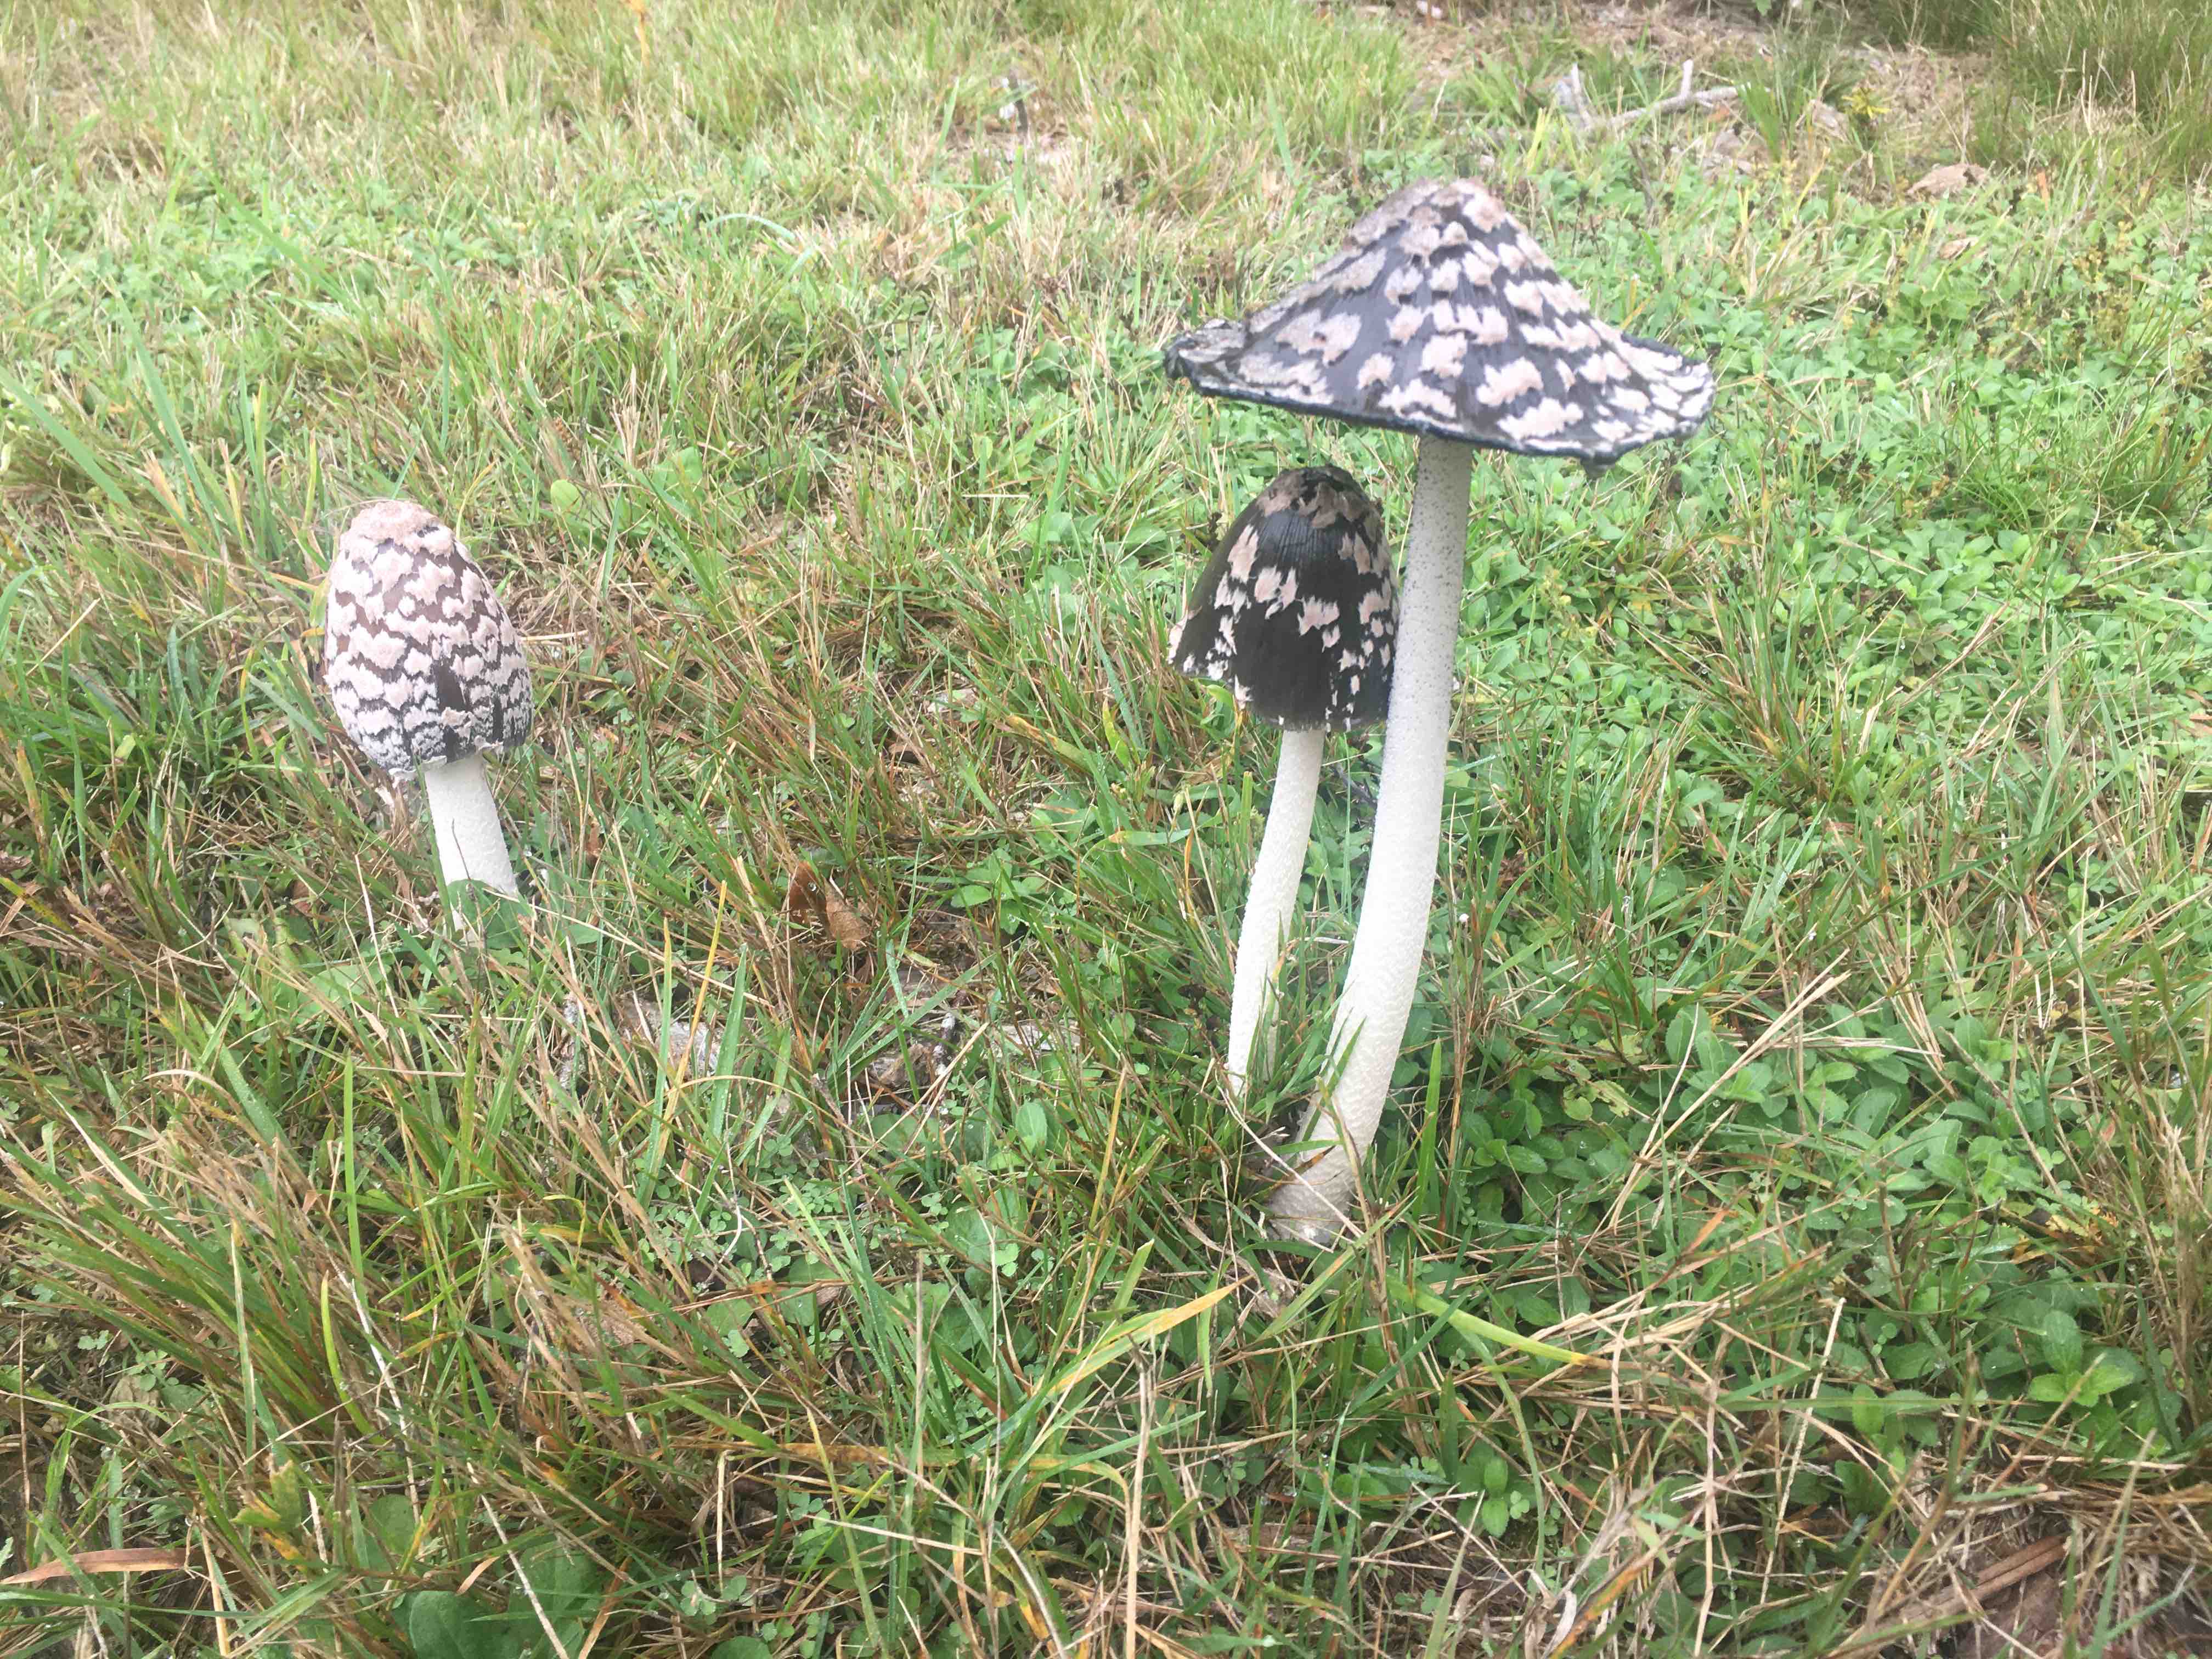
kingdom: Fungi
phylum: Basidiomycota
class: Agaricomycetes
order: Agaricales
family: Psathyrellaceae
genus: Coprinopsis
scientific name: Coprinopsis picacea
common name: skade-blækhat
